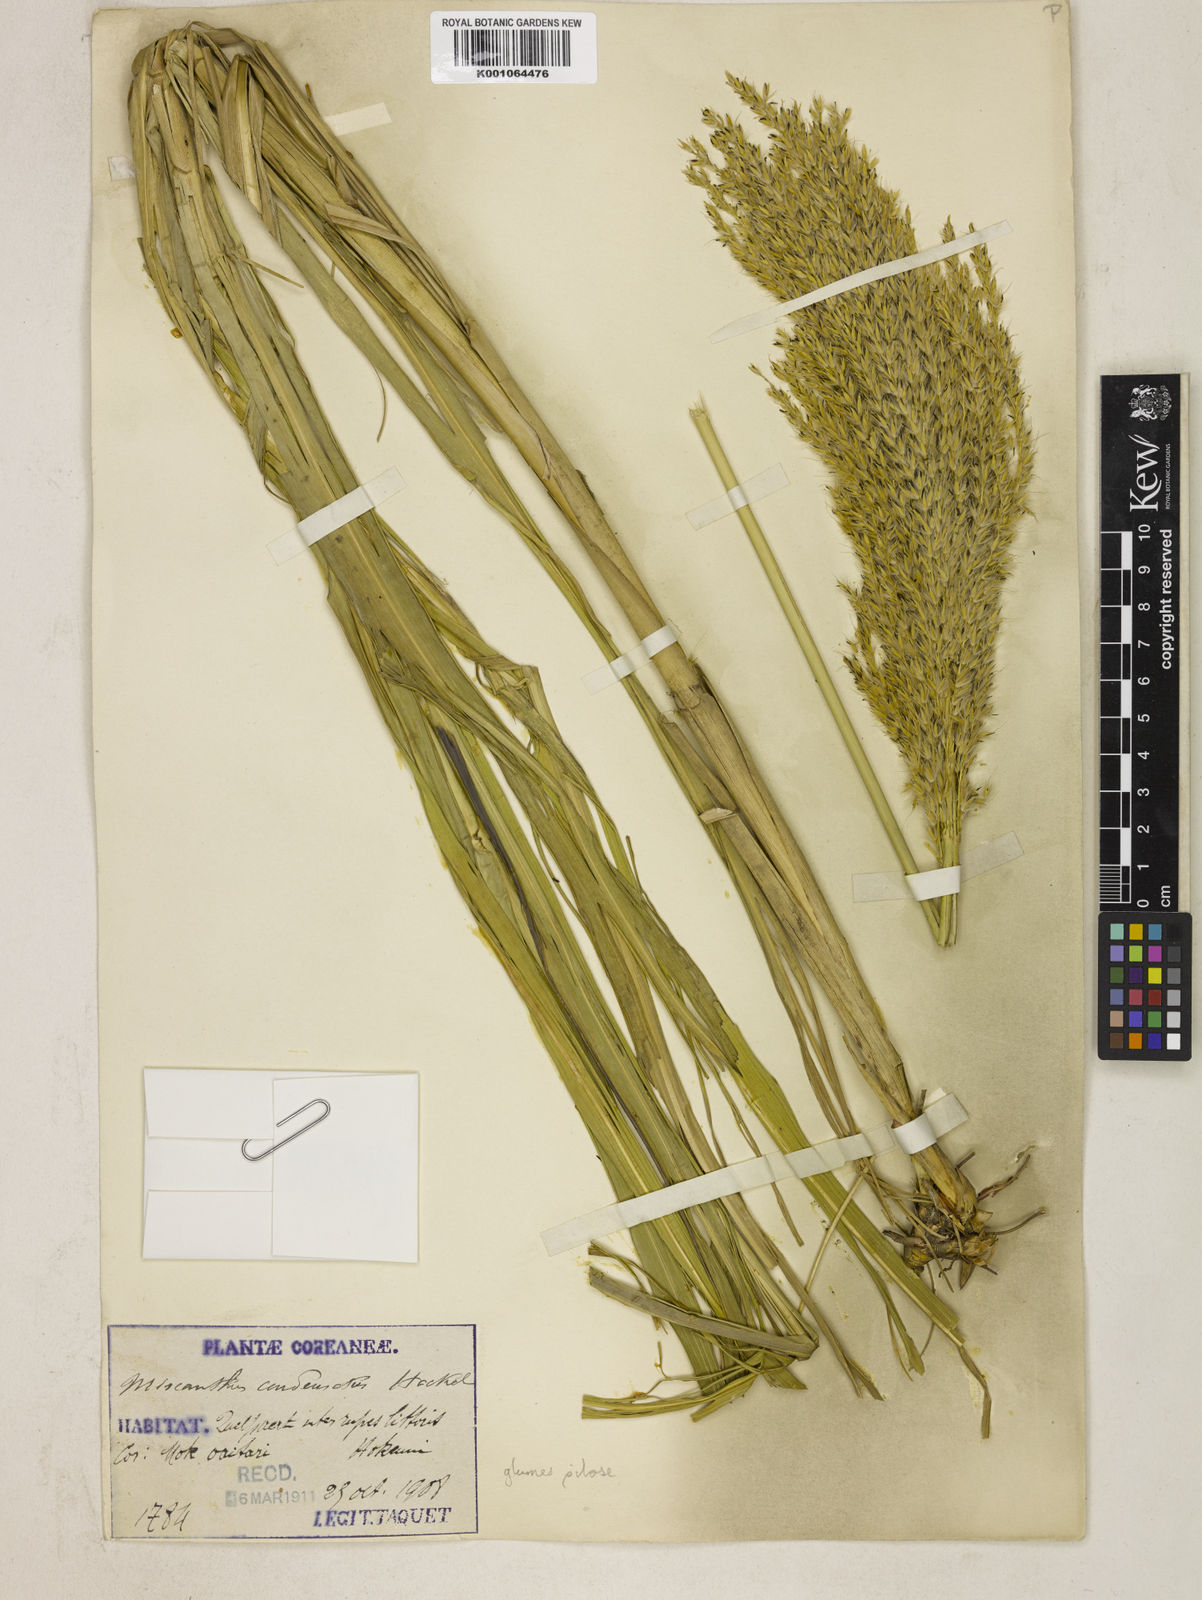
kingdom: Plantae
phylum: Tracheophyta
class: Liliopsida
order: Poales
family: Poaceae
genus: Miscanthus
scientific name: Miscanthus sinensis
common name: Chinese silvergrass
